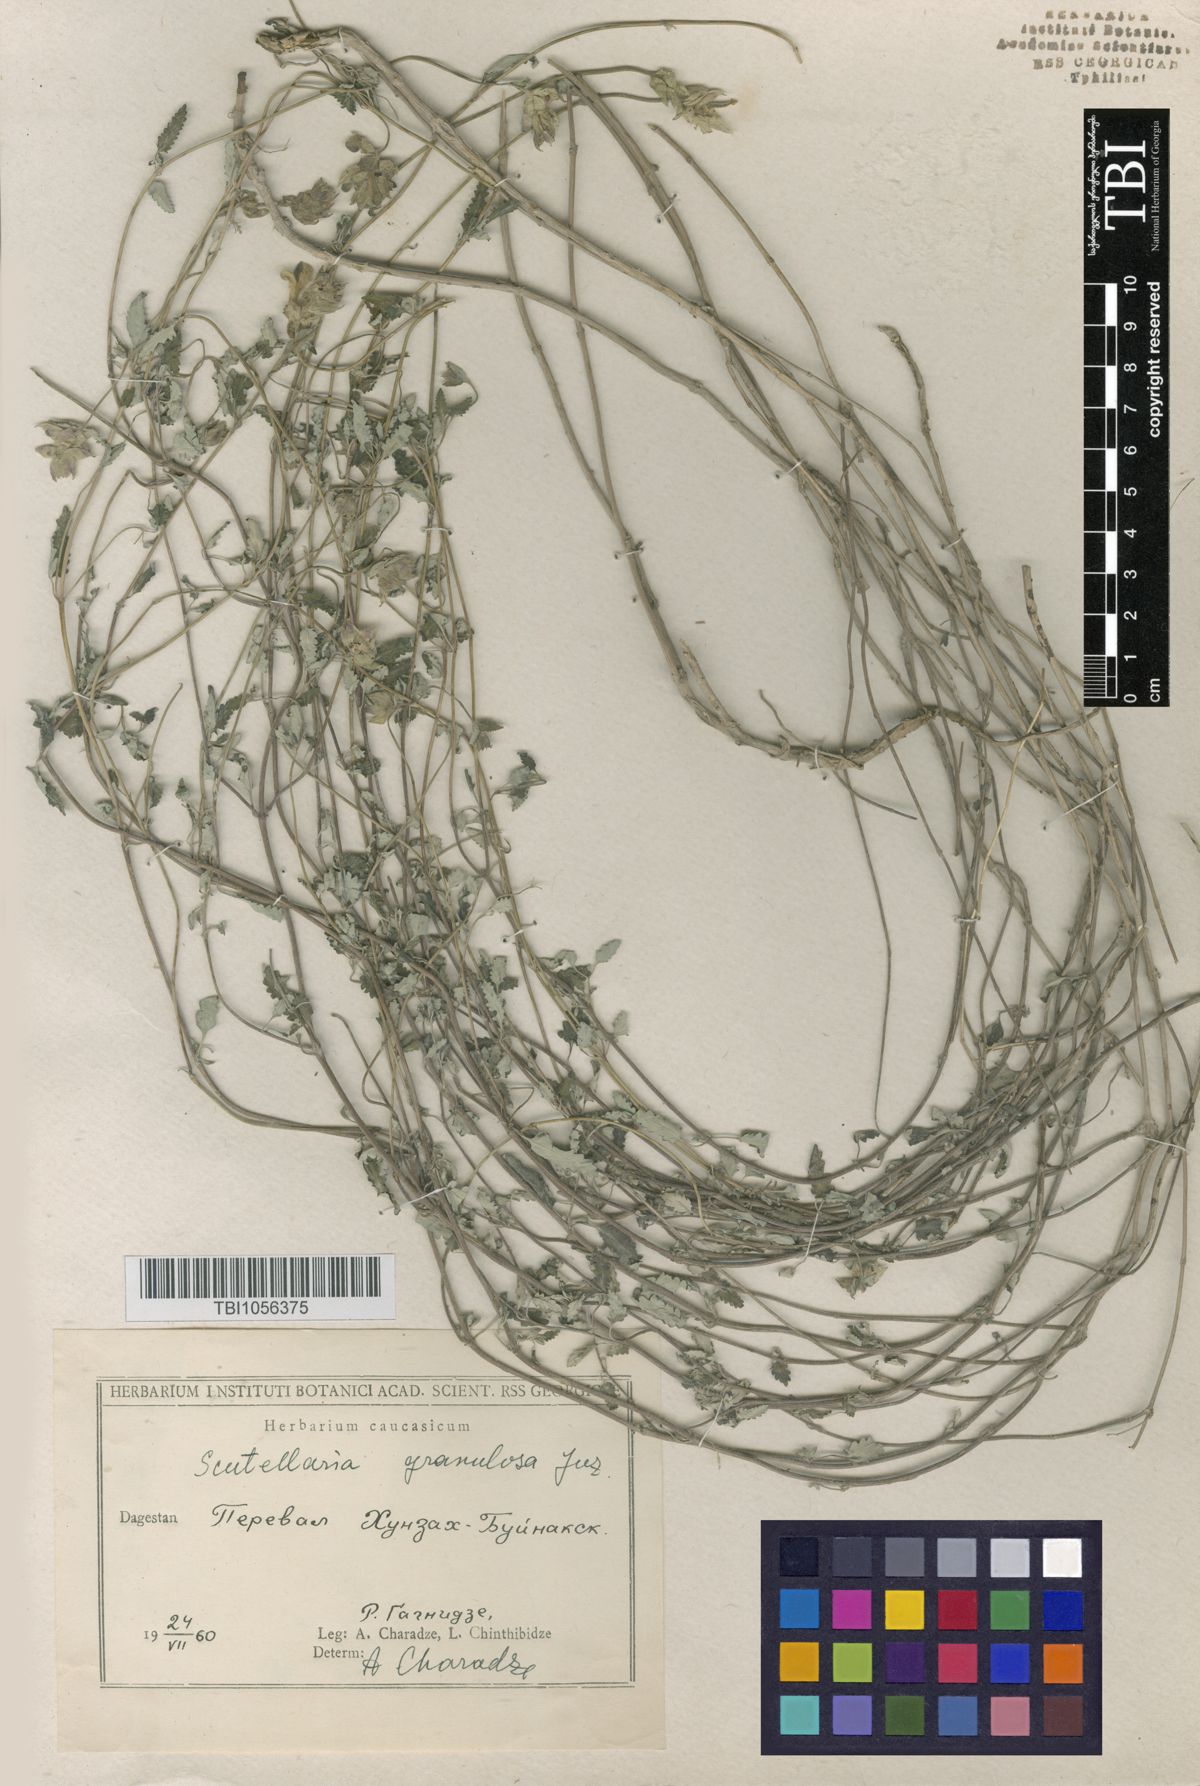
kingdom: Plantae
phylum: Tracheophyta
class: Magnoliopsida
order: Lamiales
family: Lamiaceae
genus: Scutellaria
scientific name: Scutellaria granulosa
